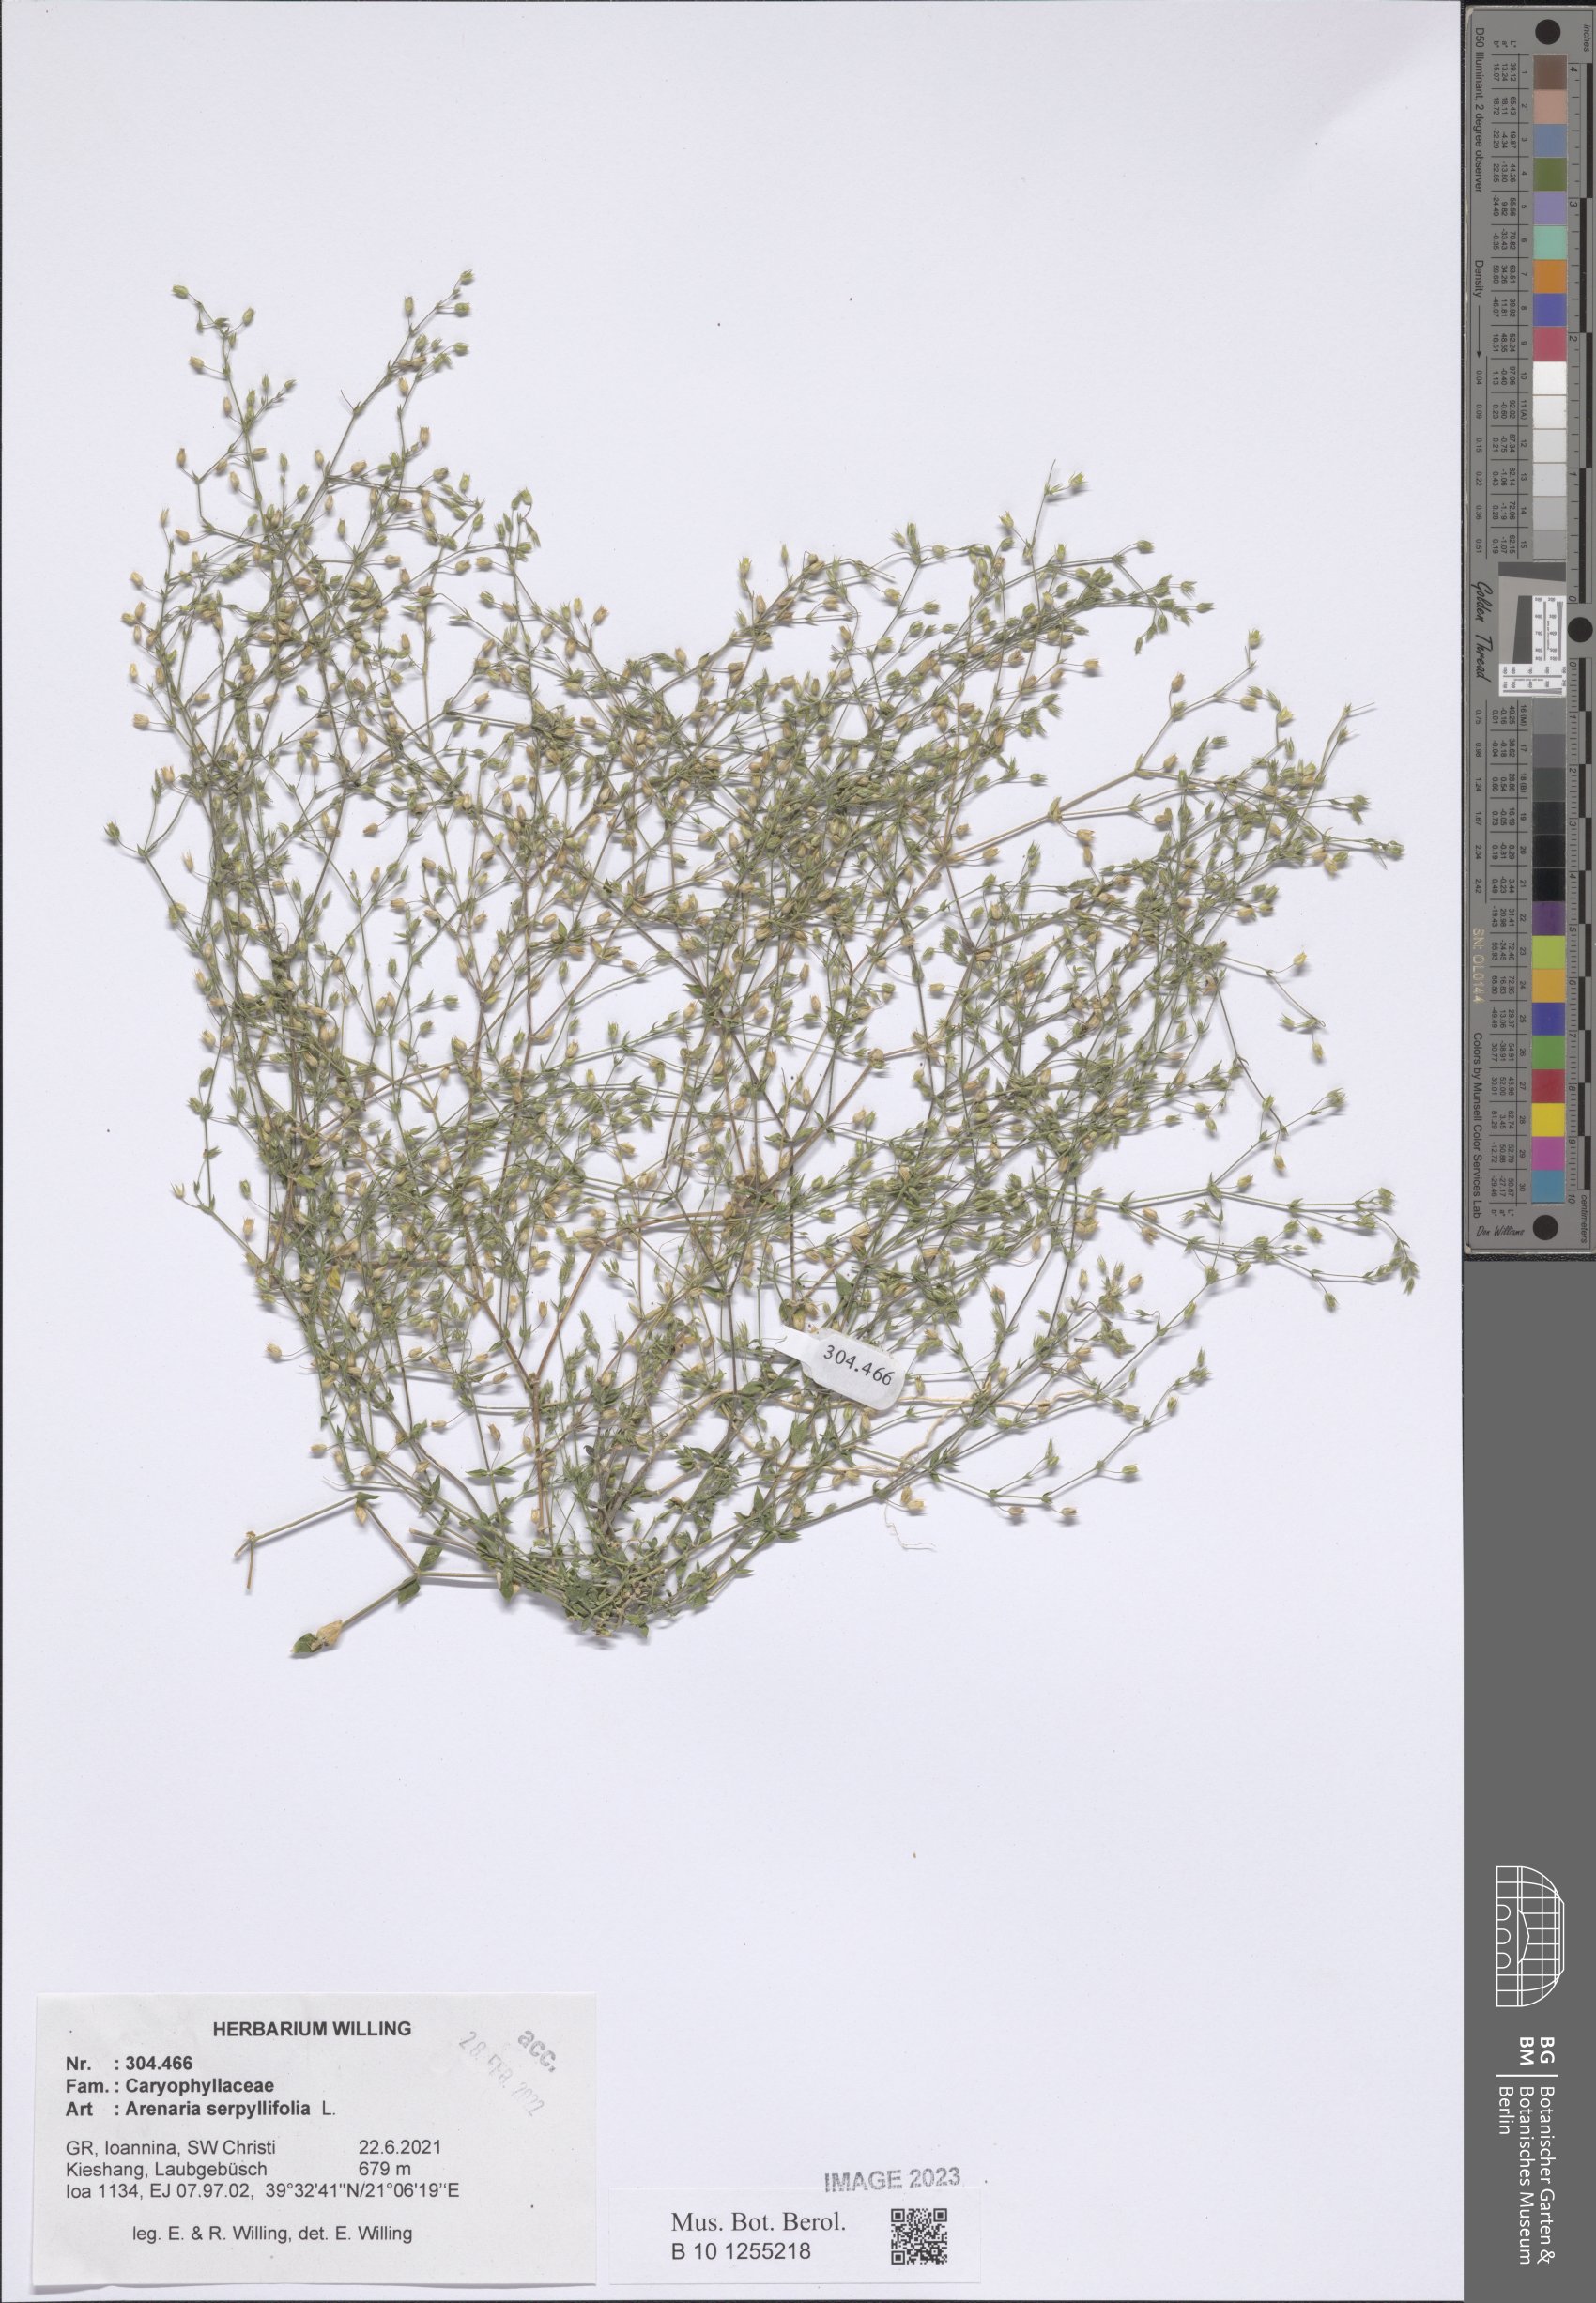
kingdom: Plantae
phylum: Tracheophyta
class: Magnoliopsida
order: Caryophyllales
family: Caryophyllaceae
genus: Arenaria
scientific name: Arenaria serpyllifolia
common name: Thyme-leaved sandwort
